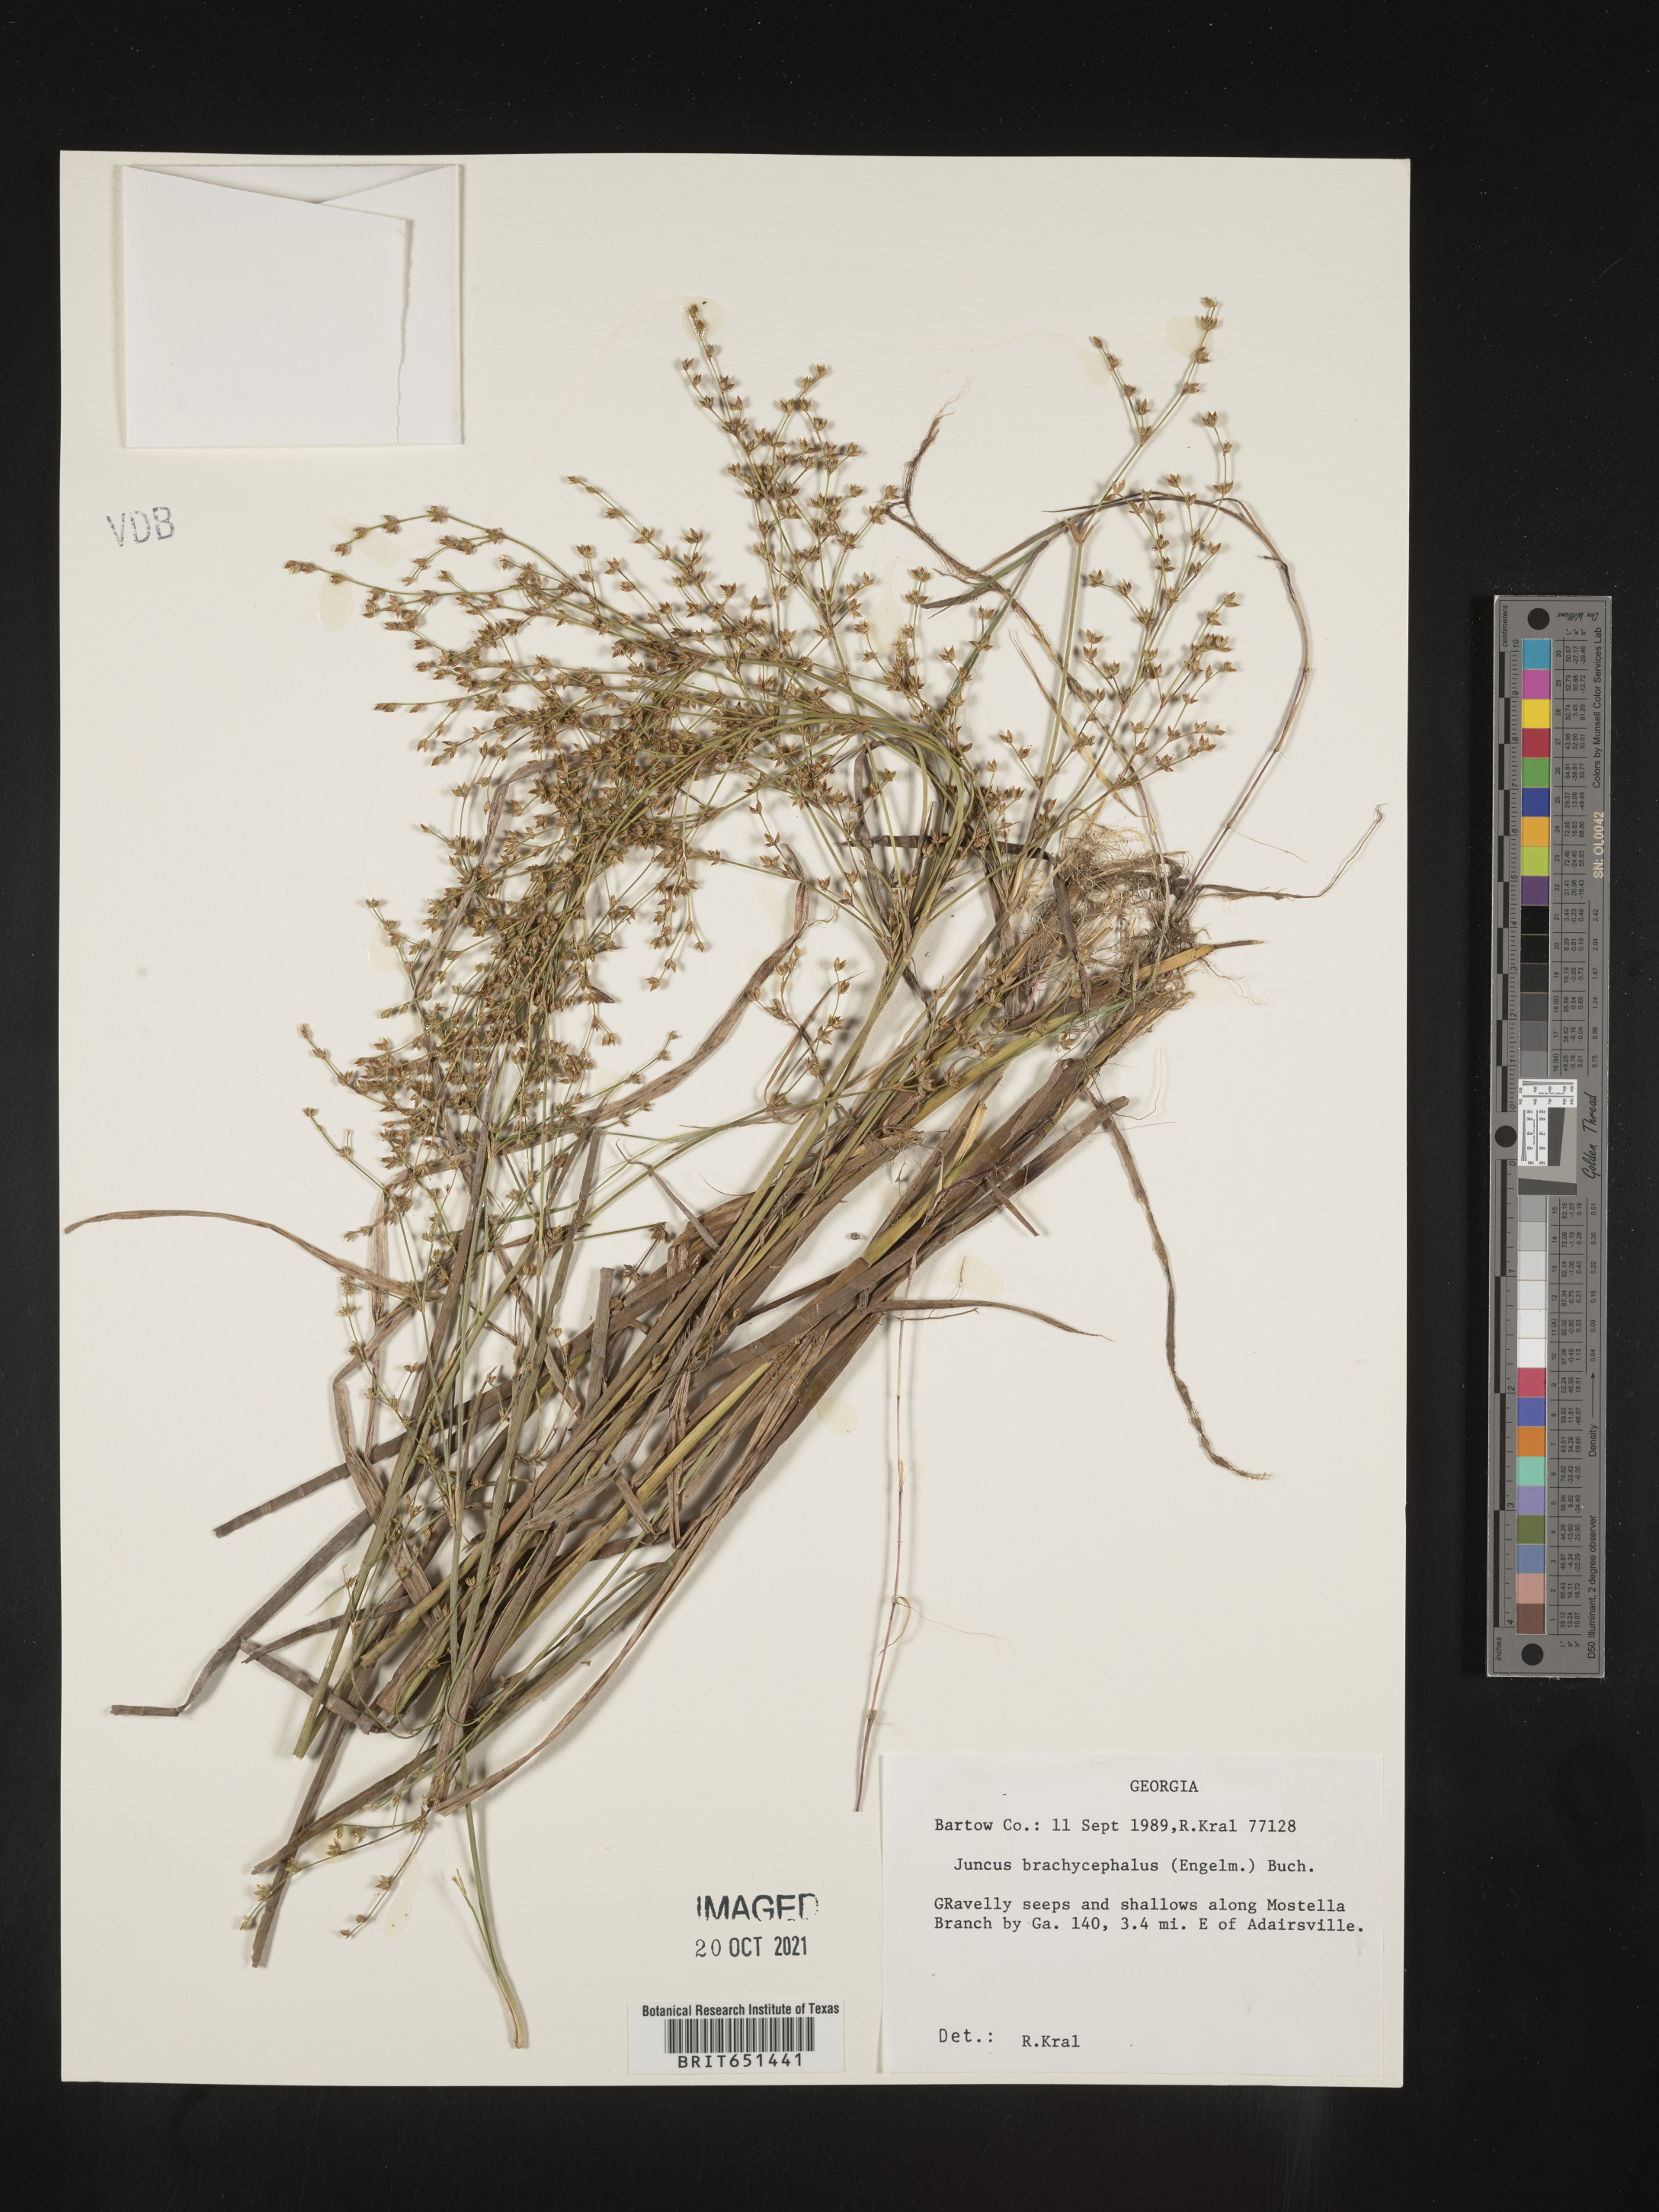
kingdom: Plantae
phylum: Tracheophyta
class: Liliopsida
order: Poales
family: Juncaceae
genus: Juncus
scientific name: Juncus brachycephalus
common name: Short-headed rush
